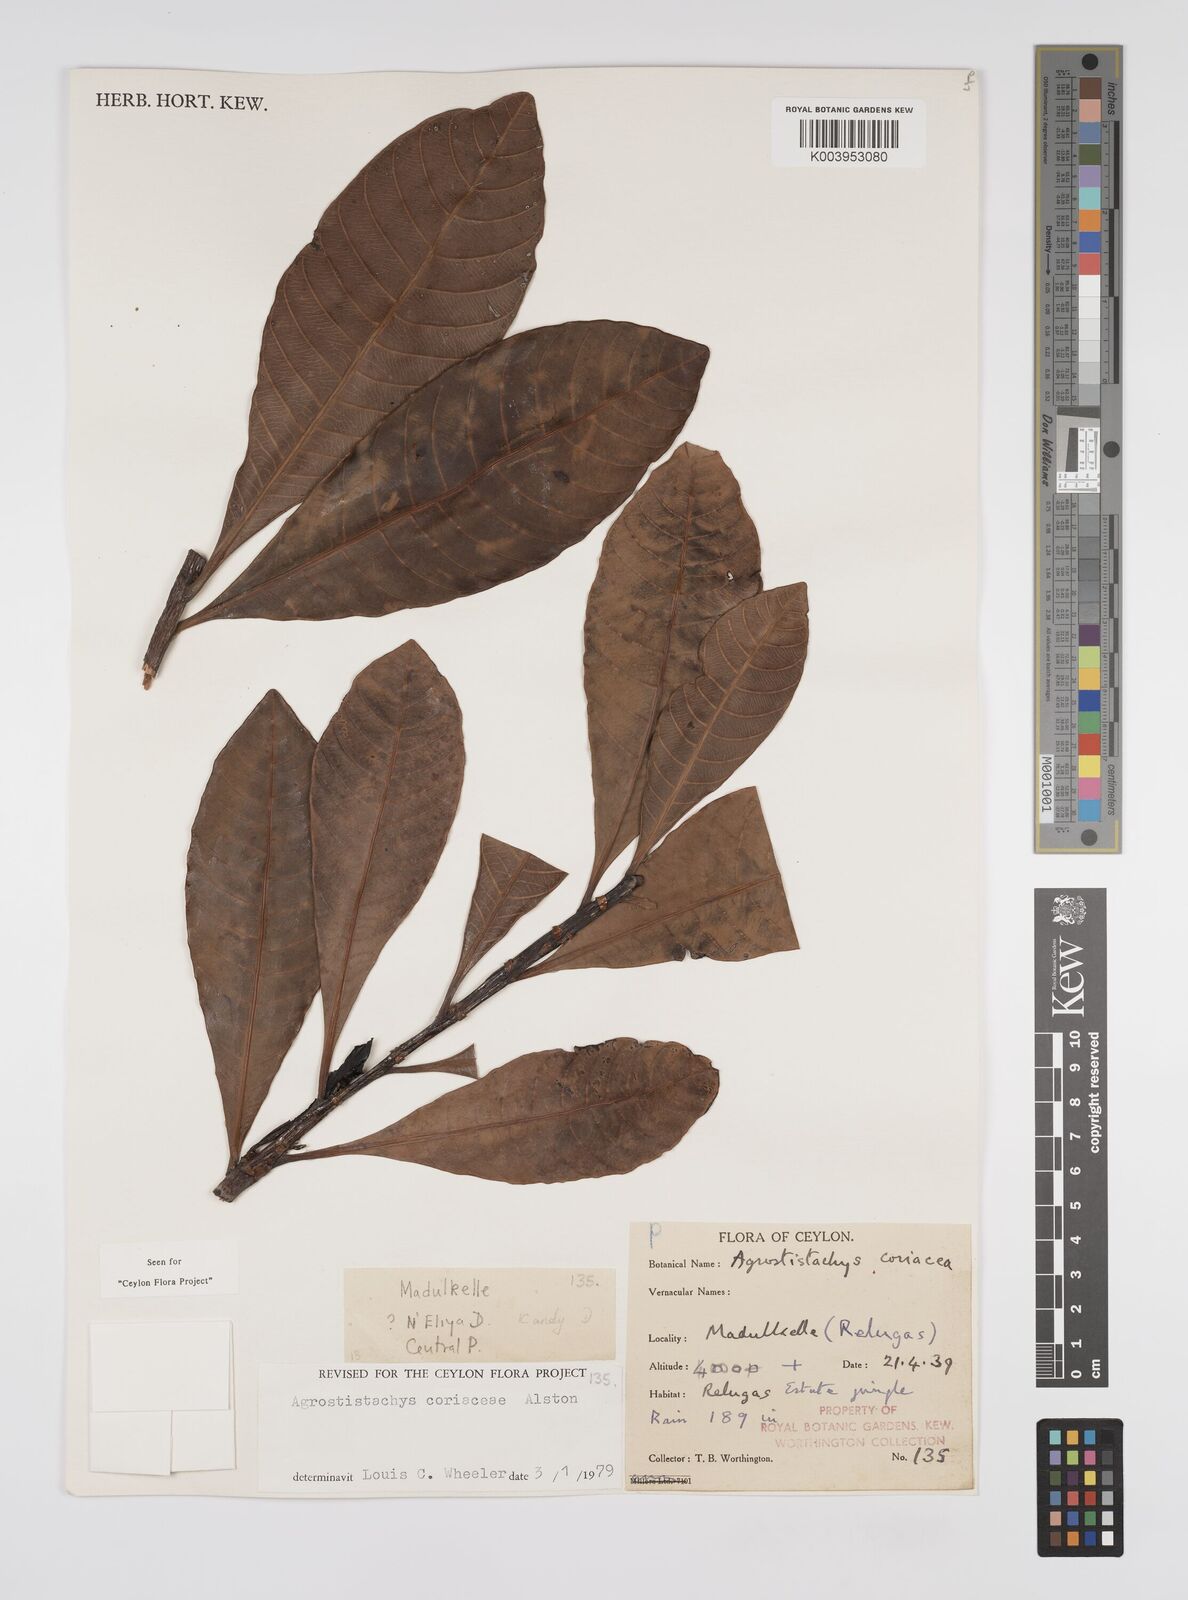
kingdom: Plantae
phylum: Tracheophyta
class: Magnoliopsida
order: Malpighiales
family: Euphorbiaceae
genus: Agrostistachys
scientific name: Agrostistachys borneensis
